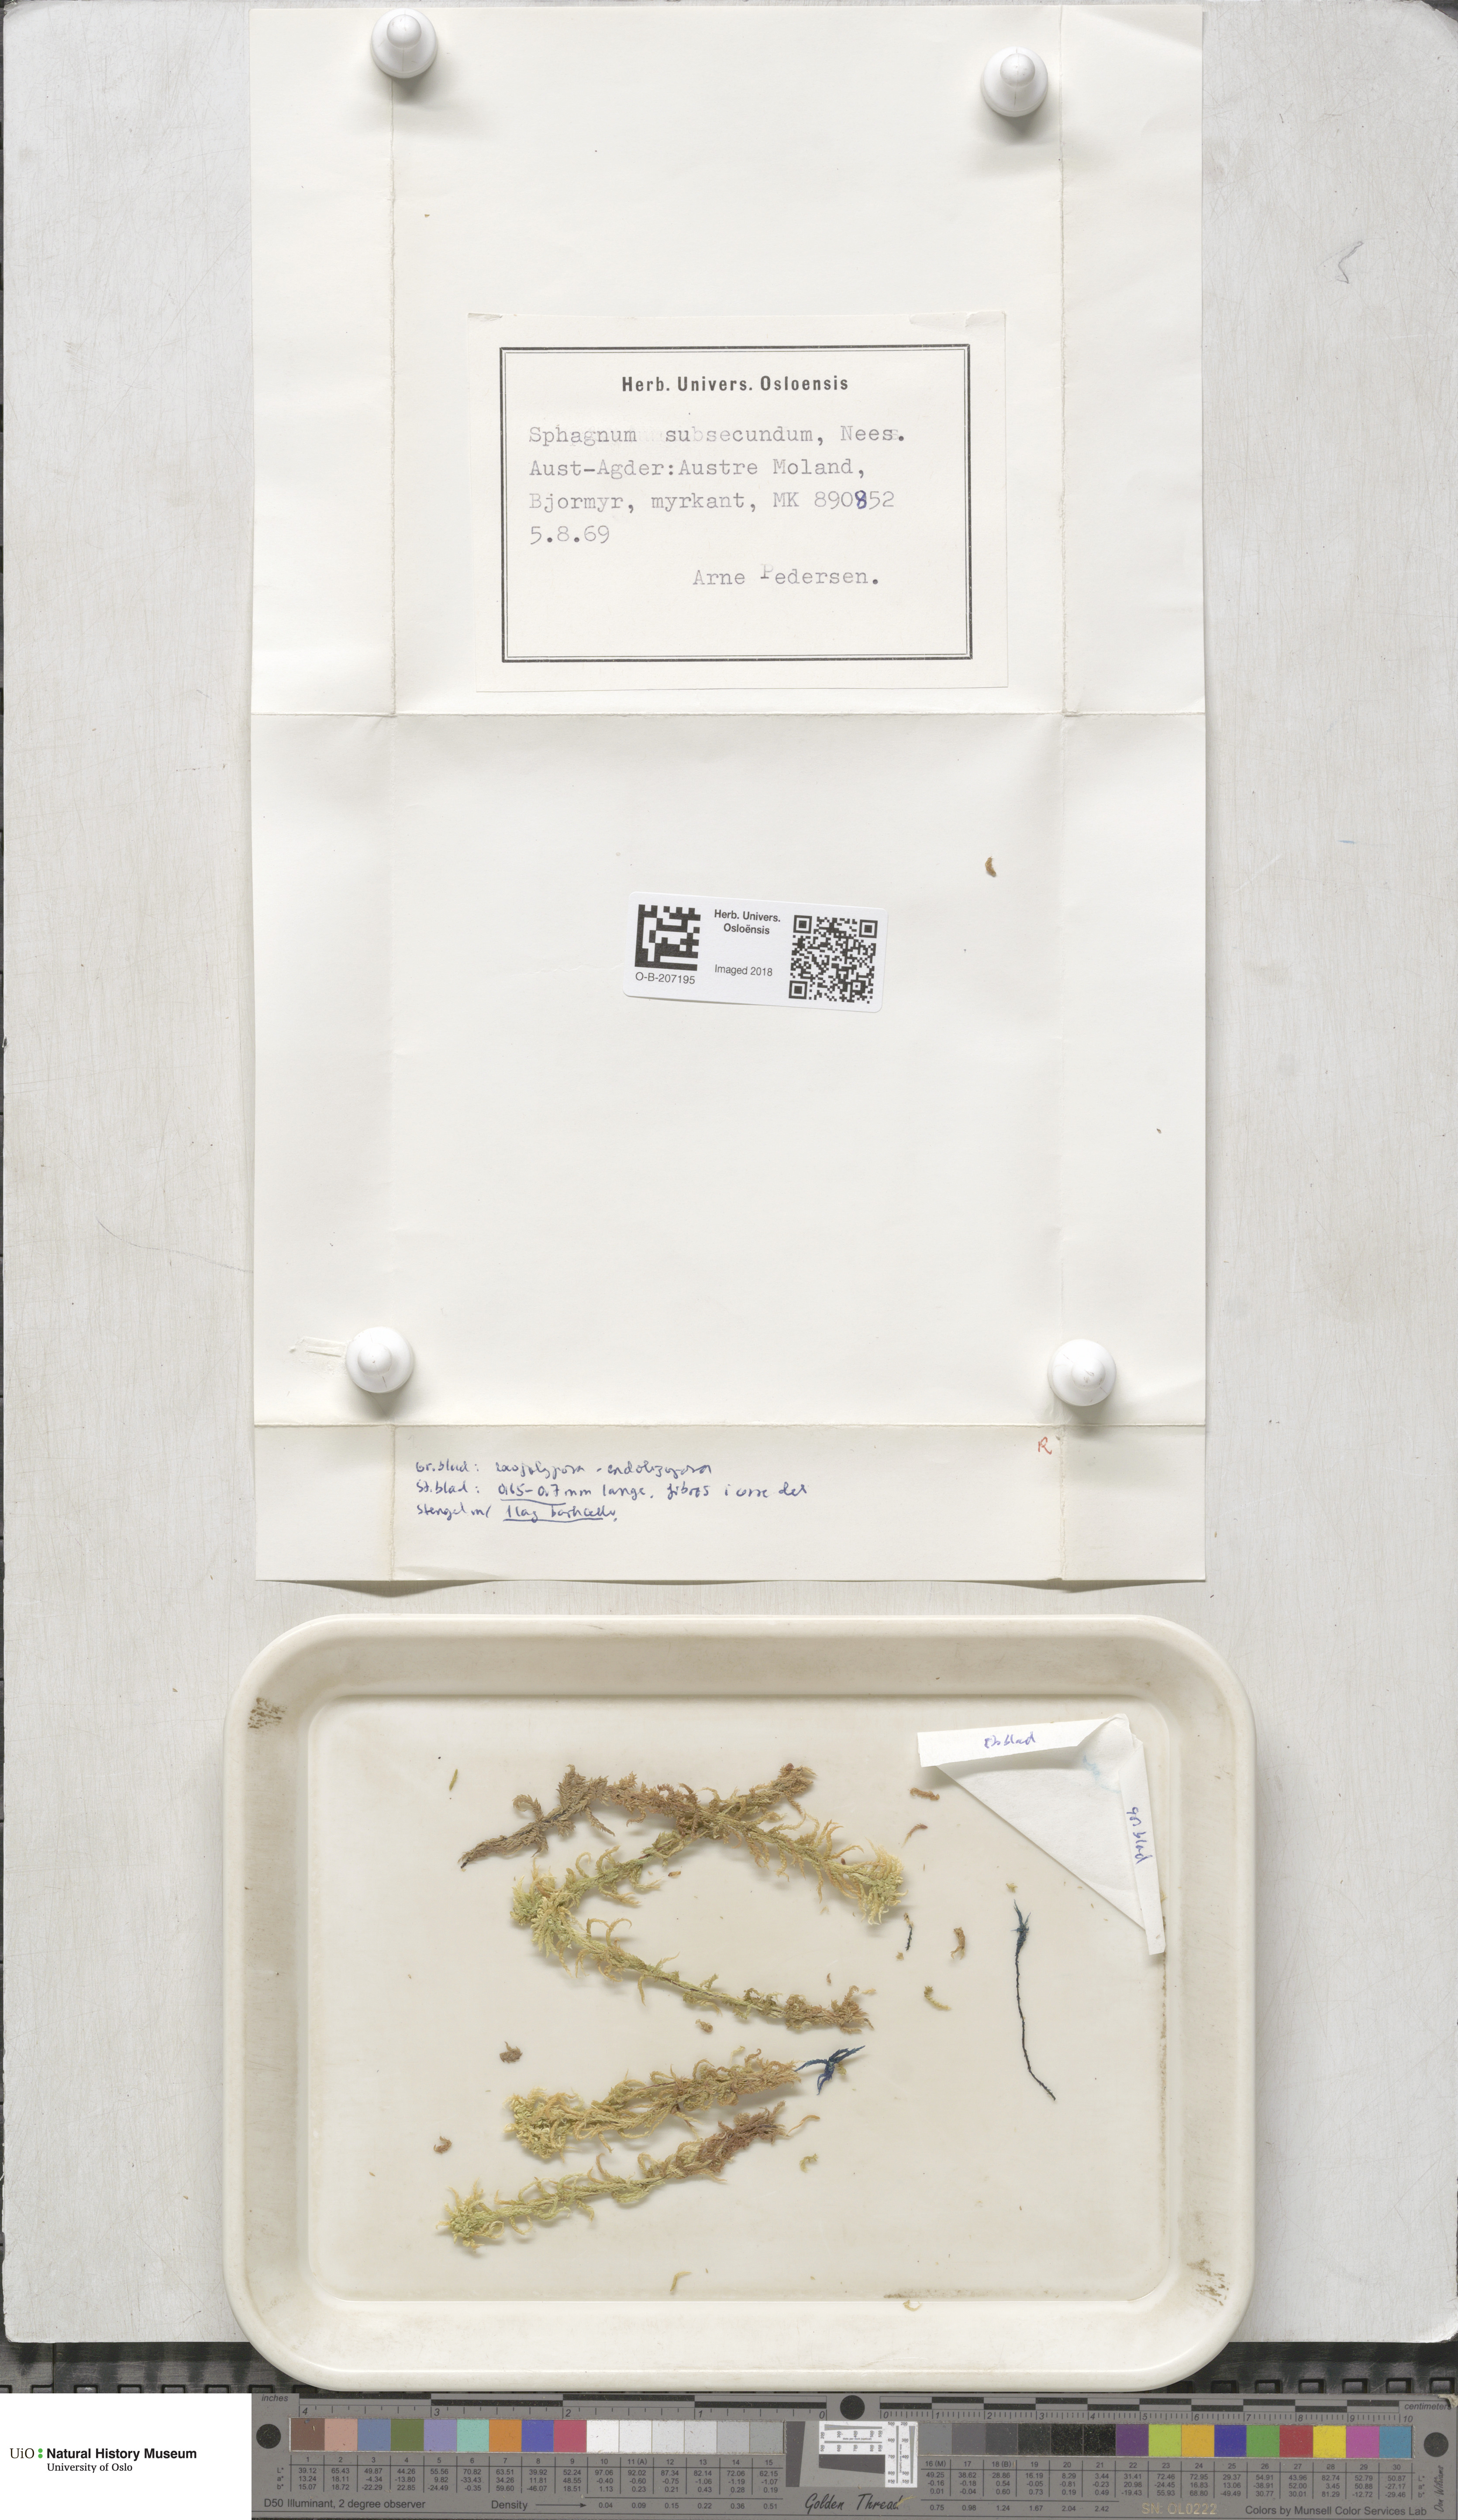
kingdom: Plantae
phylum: Bryophyta
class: Sphagnopsida
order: Sphagnales
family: Sphagnaceae
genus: Sphagnum
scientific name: Sphagnum subsecundum
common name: Orange peat moss
